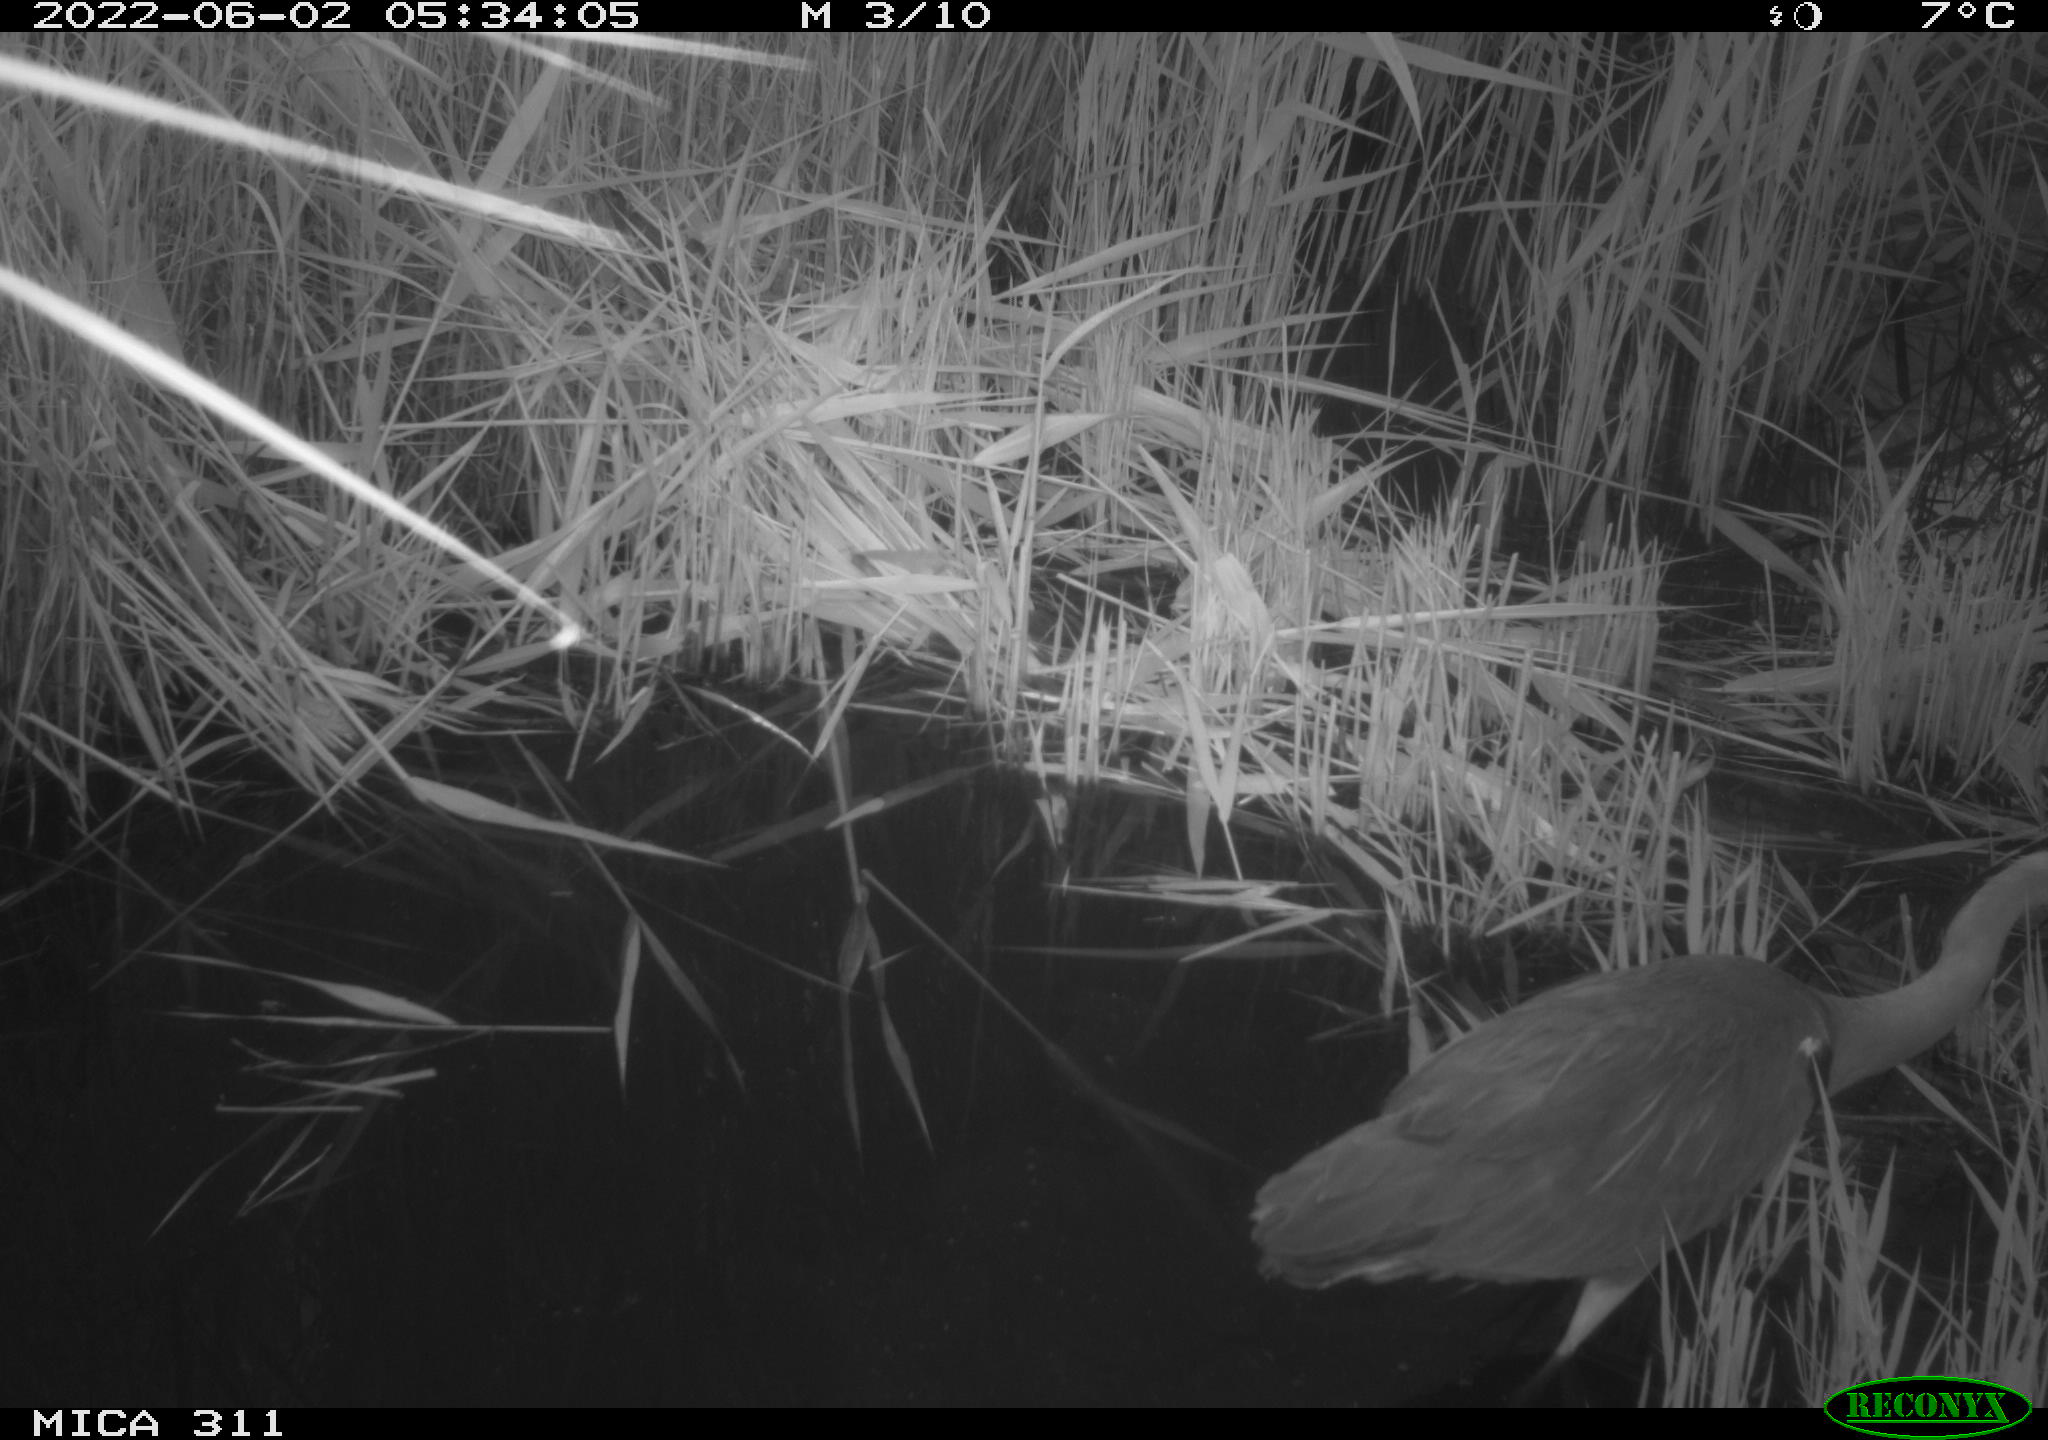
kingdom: Animalia
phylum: Chordata
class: Aves
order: Pelecaniformes
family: Ardeidae
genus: Ardea
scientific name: Ardea cinerea
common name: Grey heron
